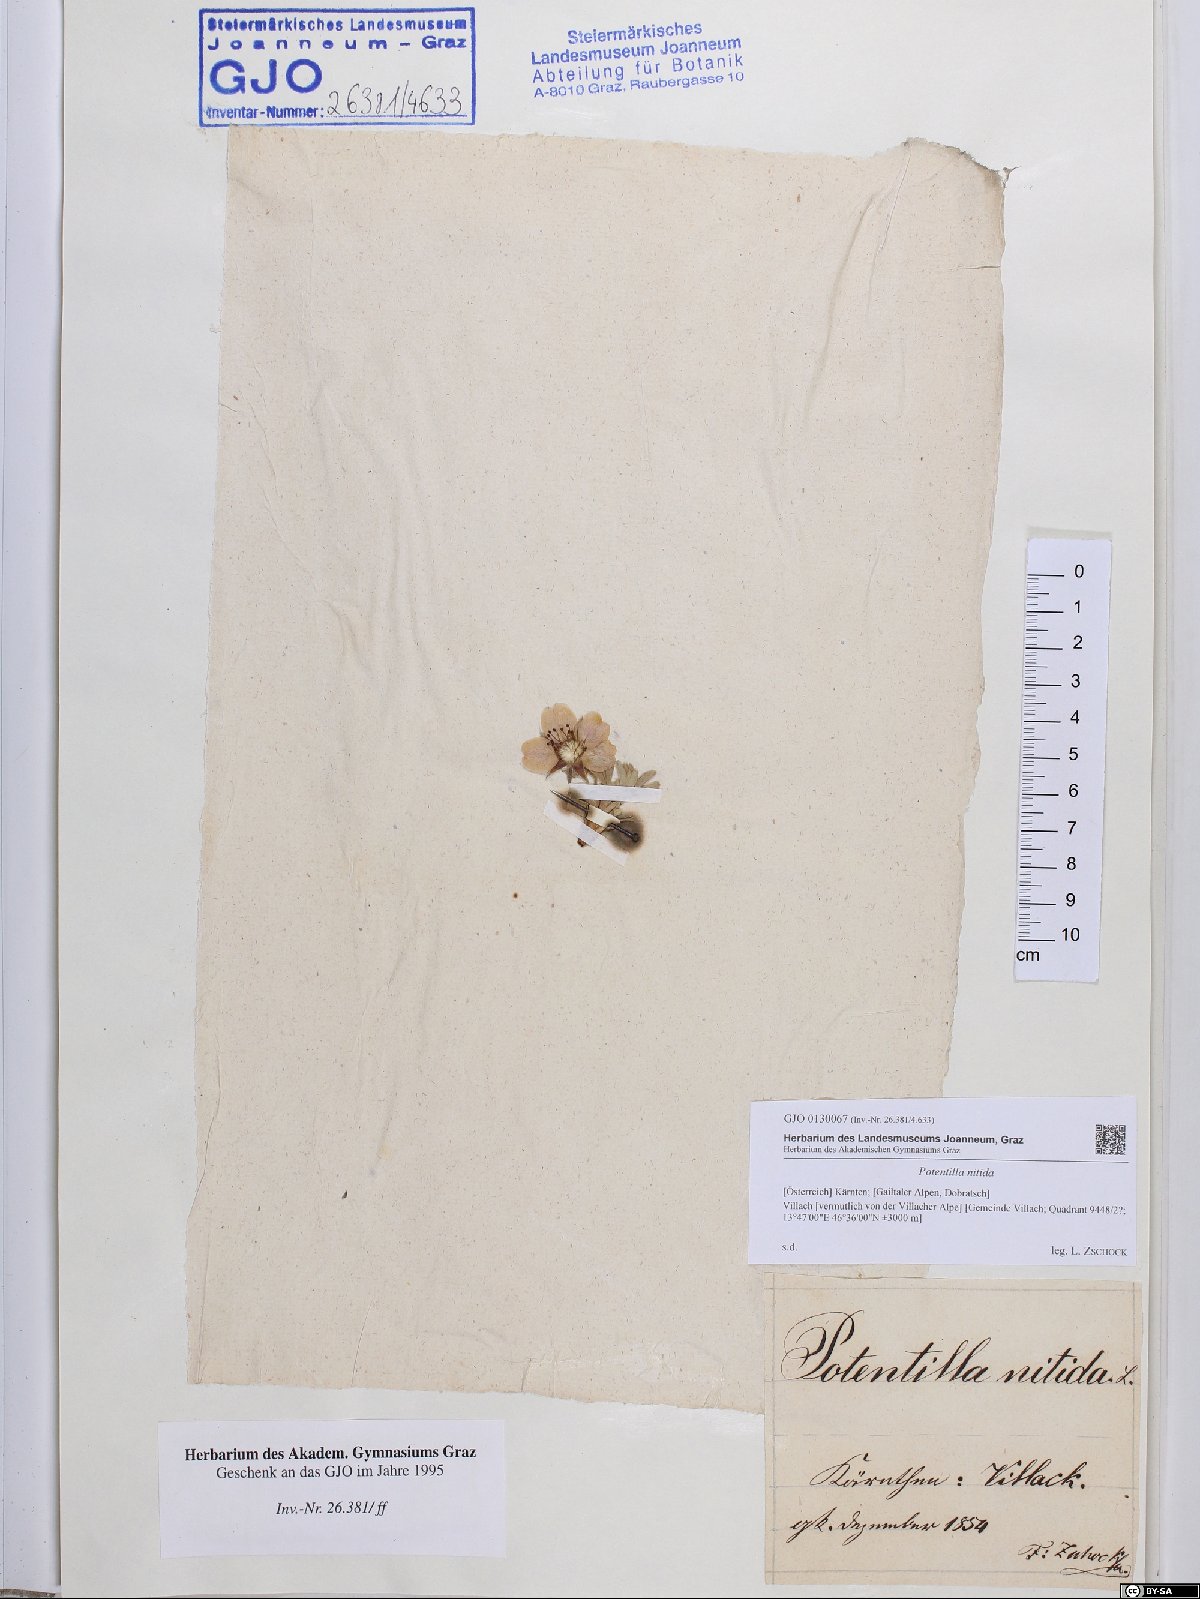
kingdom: Plantae
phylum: Tracheophyta
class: Magnoliopsida
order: Rosales
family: Rosaceae
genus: Potentilla
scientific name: Potentilla nitida
